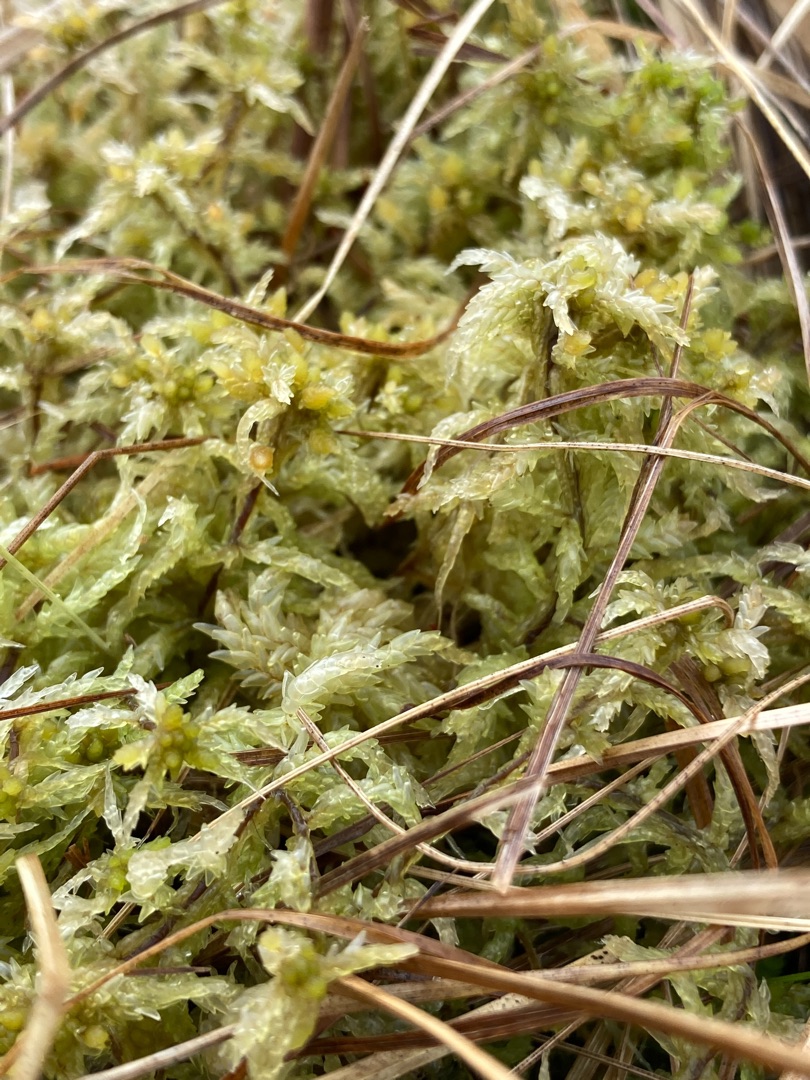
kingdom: Plantae
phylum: Bryophyta
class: Sphagnopsida
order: Sphagnales
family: Sphagnaceae
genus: Sphagnum
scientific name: Sphagnum
